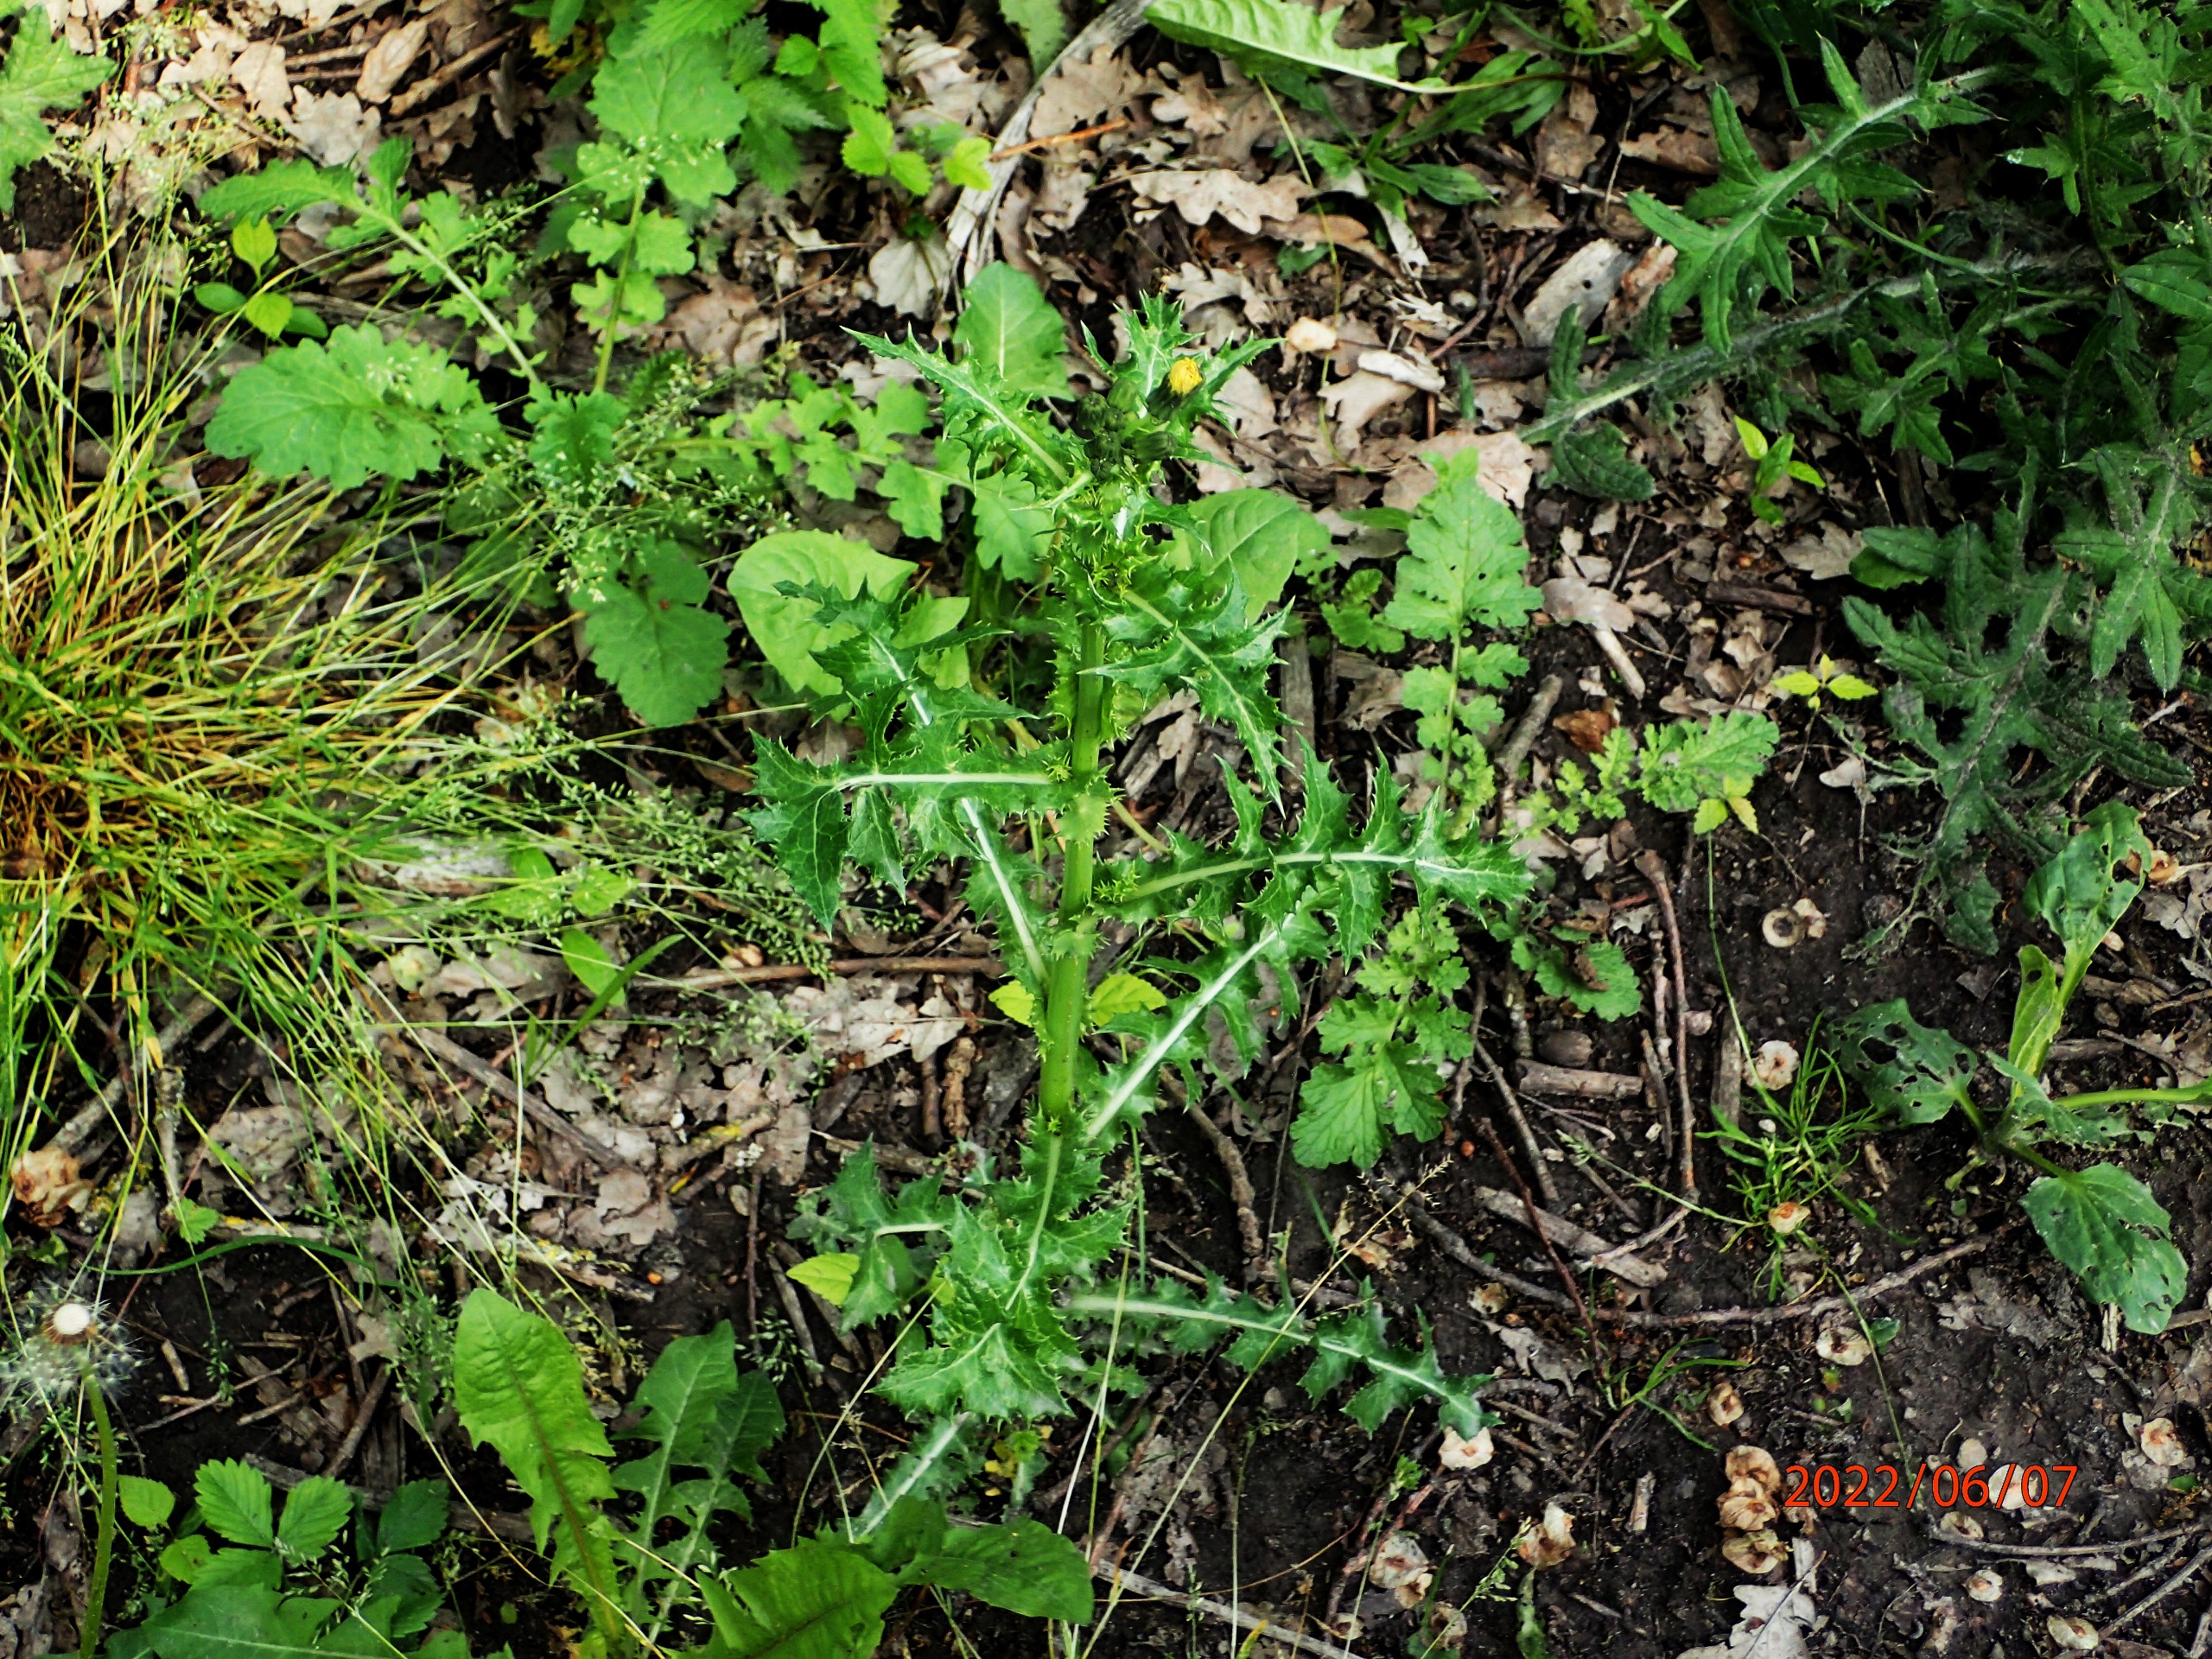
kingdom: Plantae
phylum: Tracheophyta
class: Magnoliopsida
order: Asterales
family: Asteraceae
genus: Sonchus
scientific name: Sonchus asper
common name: Ru svinemælk
